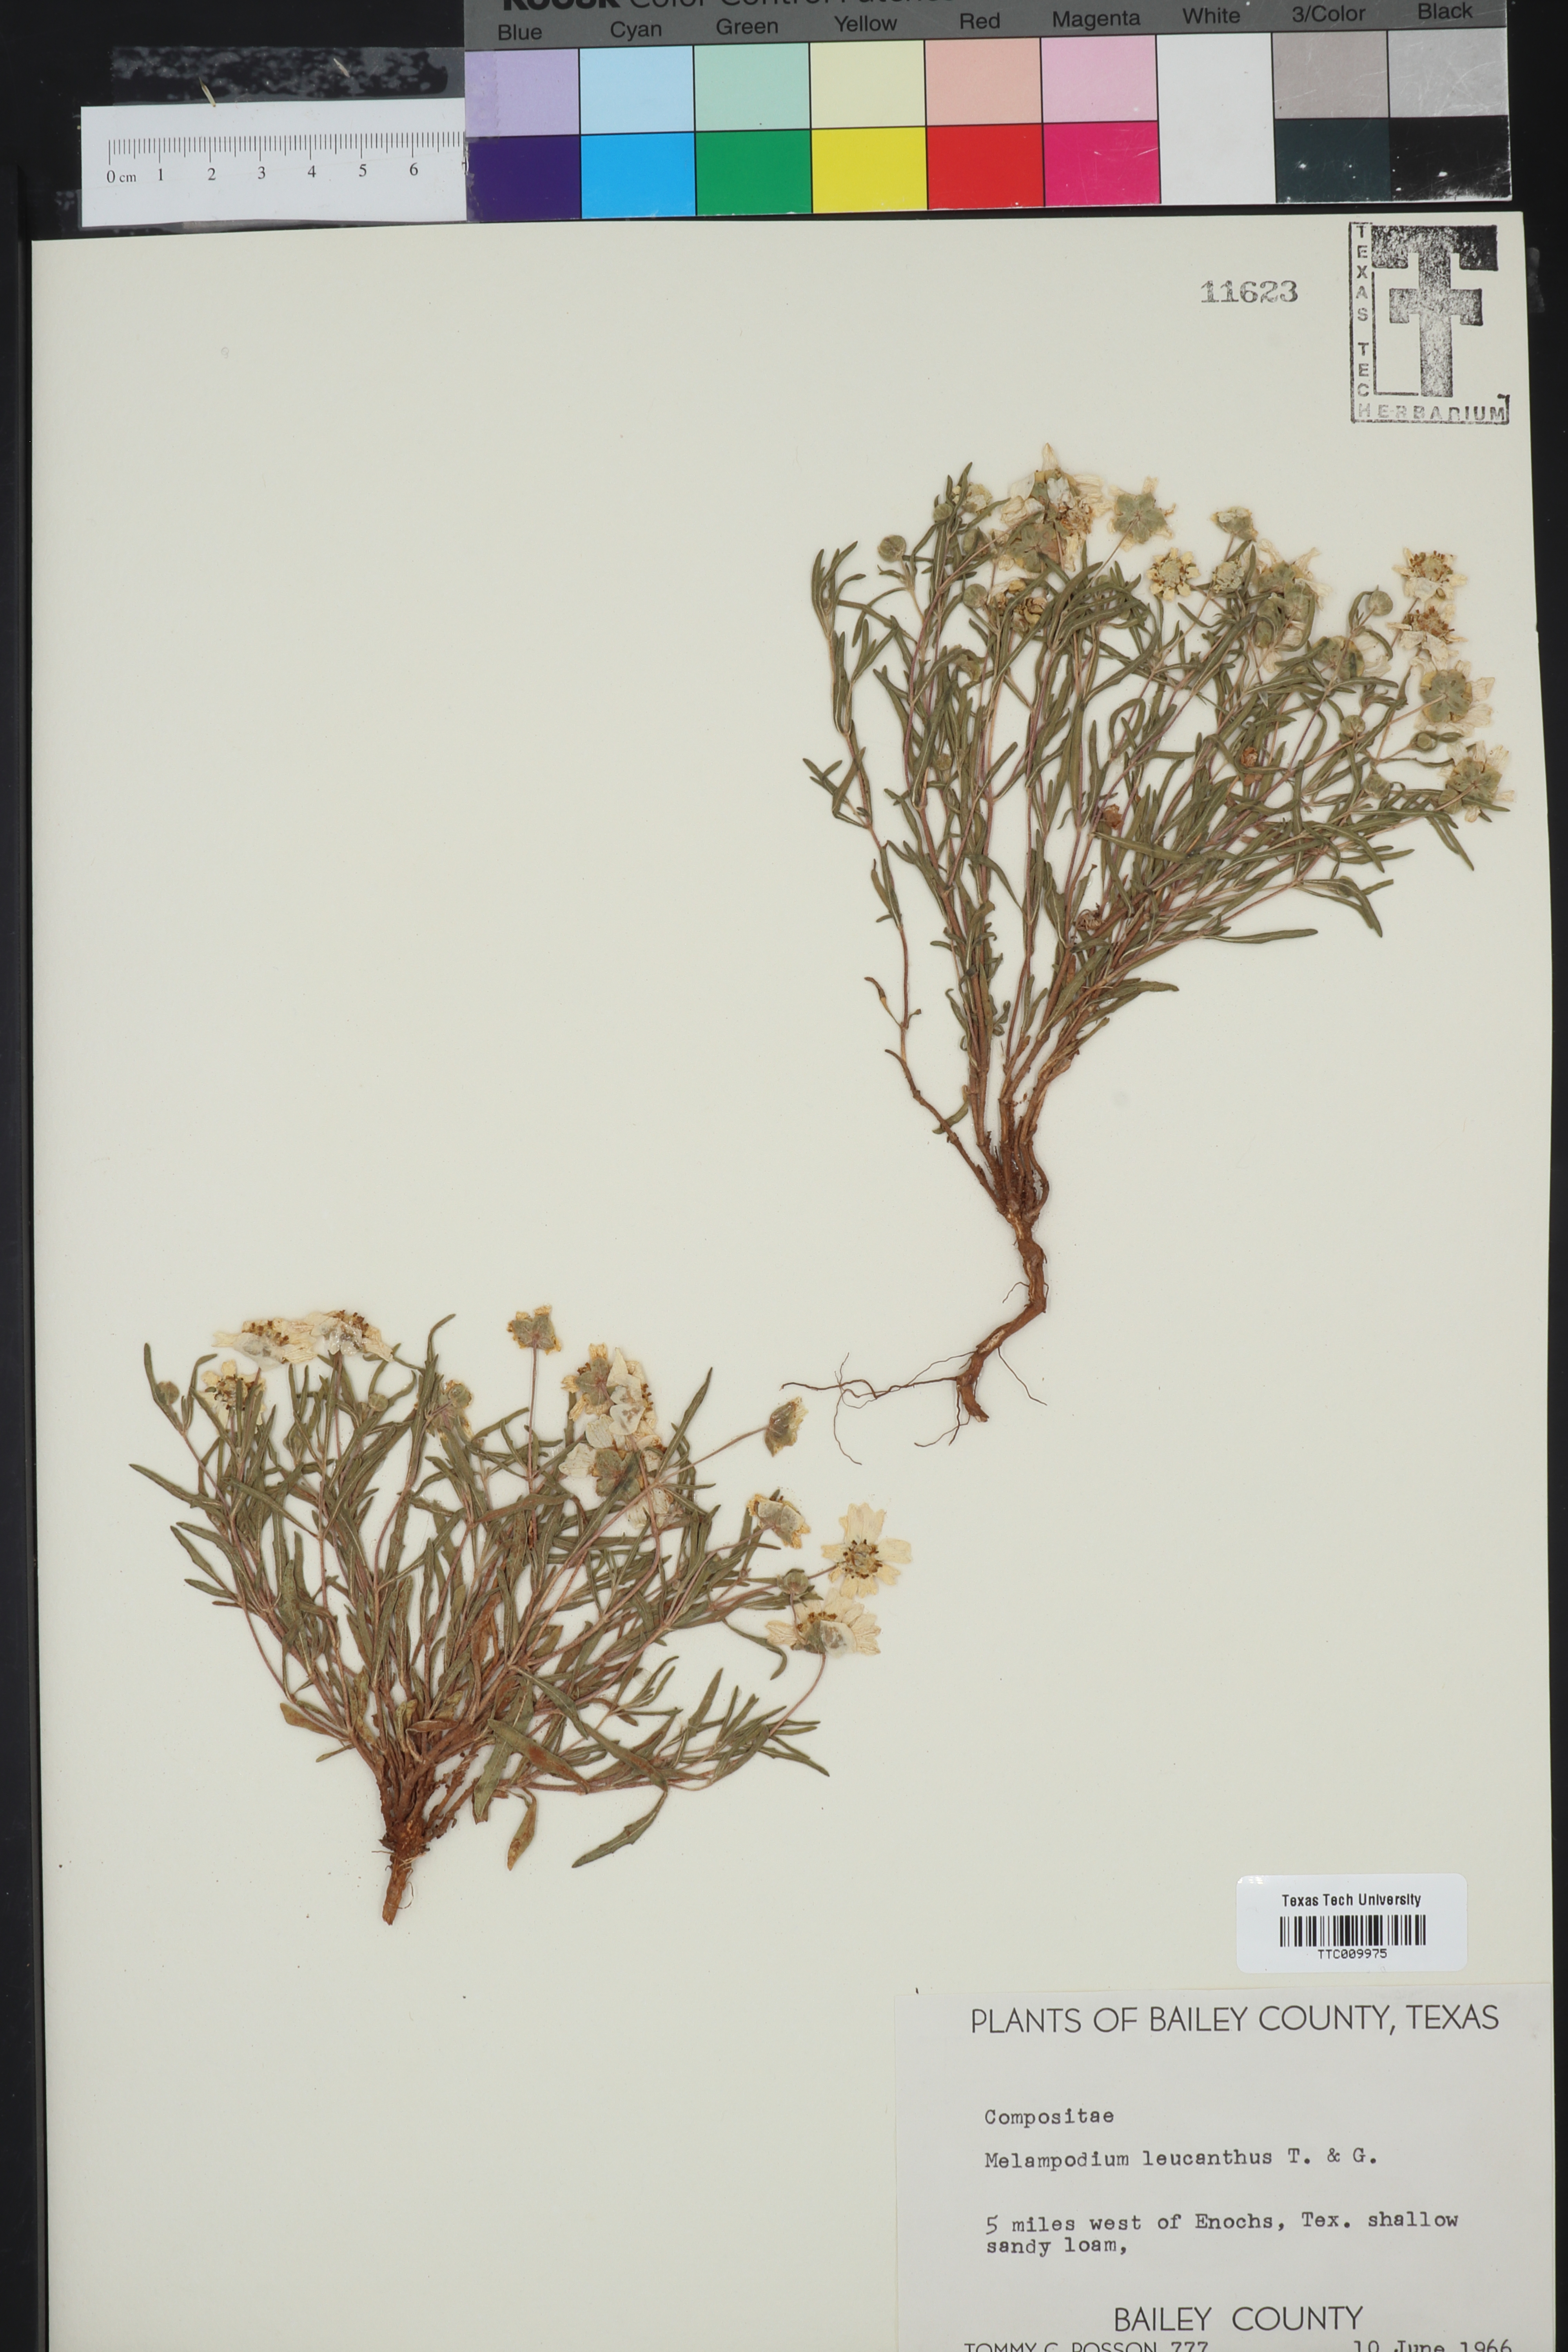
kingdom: Plantae
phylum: Tracheophyta
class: Magnoliopsida
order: Asterales
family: Asteraceae
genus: Melampodium
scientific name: Melampodium leucanthum
